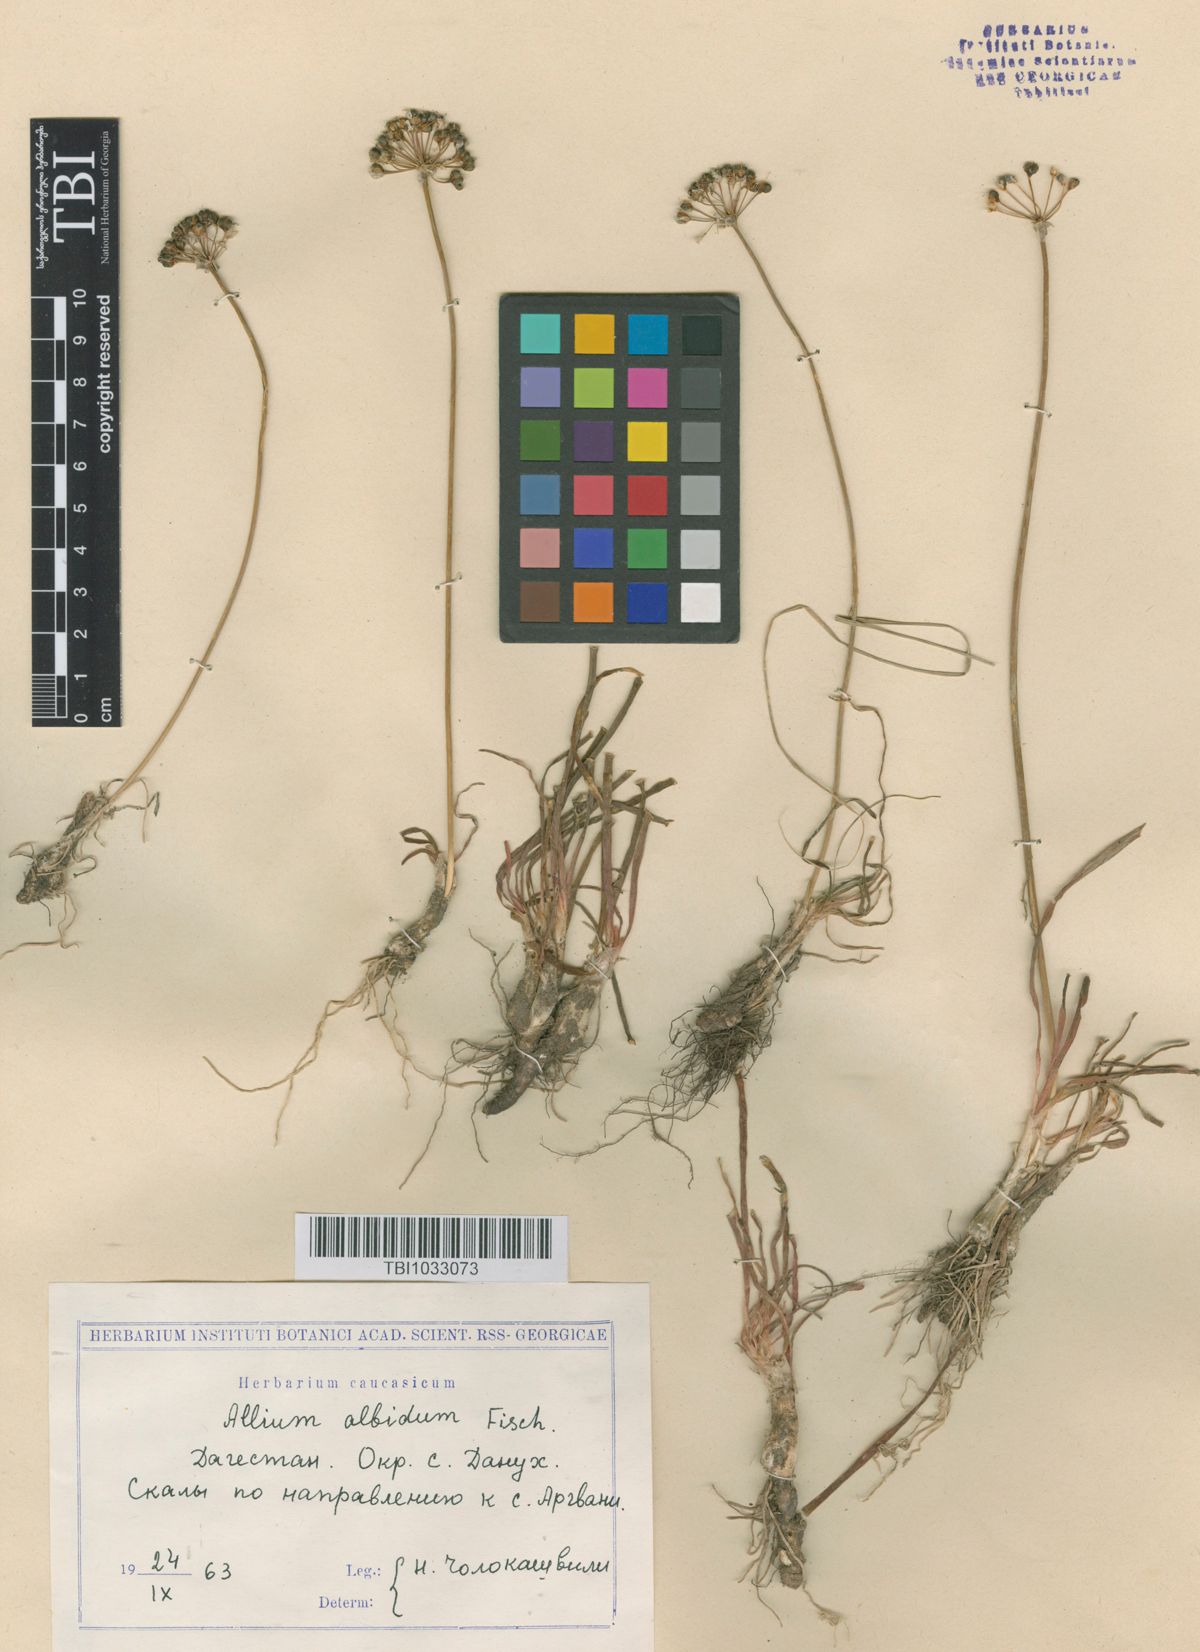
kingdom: Plantae
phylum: Tracheophyta
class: Liliopsida
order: Asparagales
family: Amaryllidaceae
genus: Allium
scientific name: Allium denudatum
